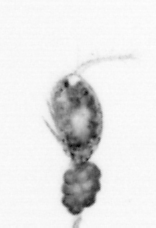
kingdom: Animalia
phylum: Arthropoda
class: Copepoda
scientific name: Copepoda
